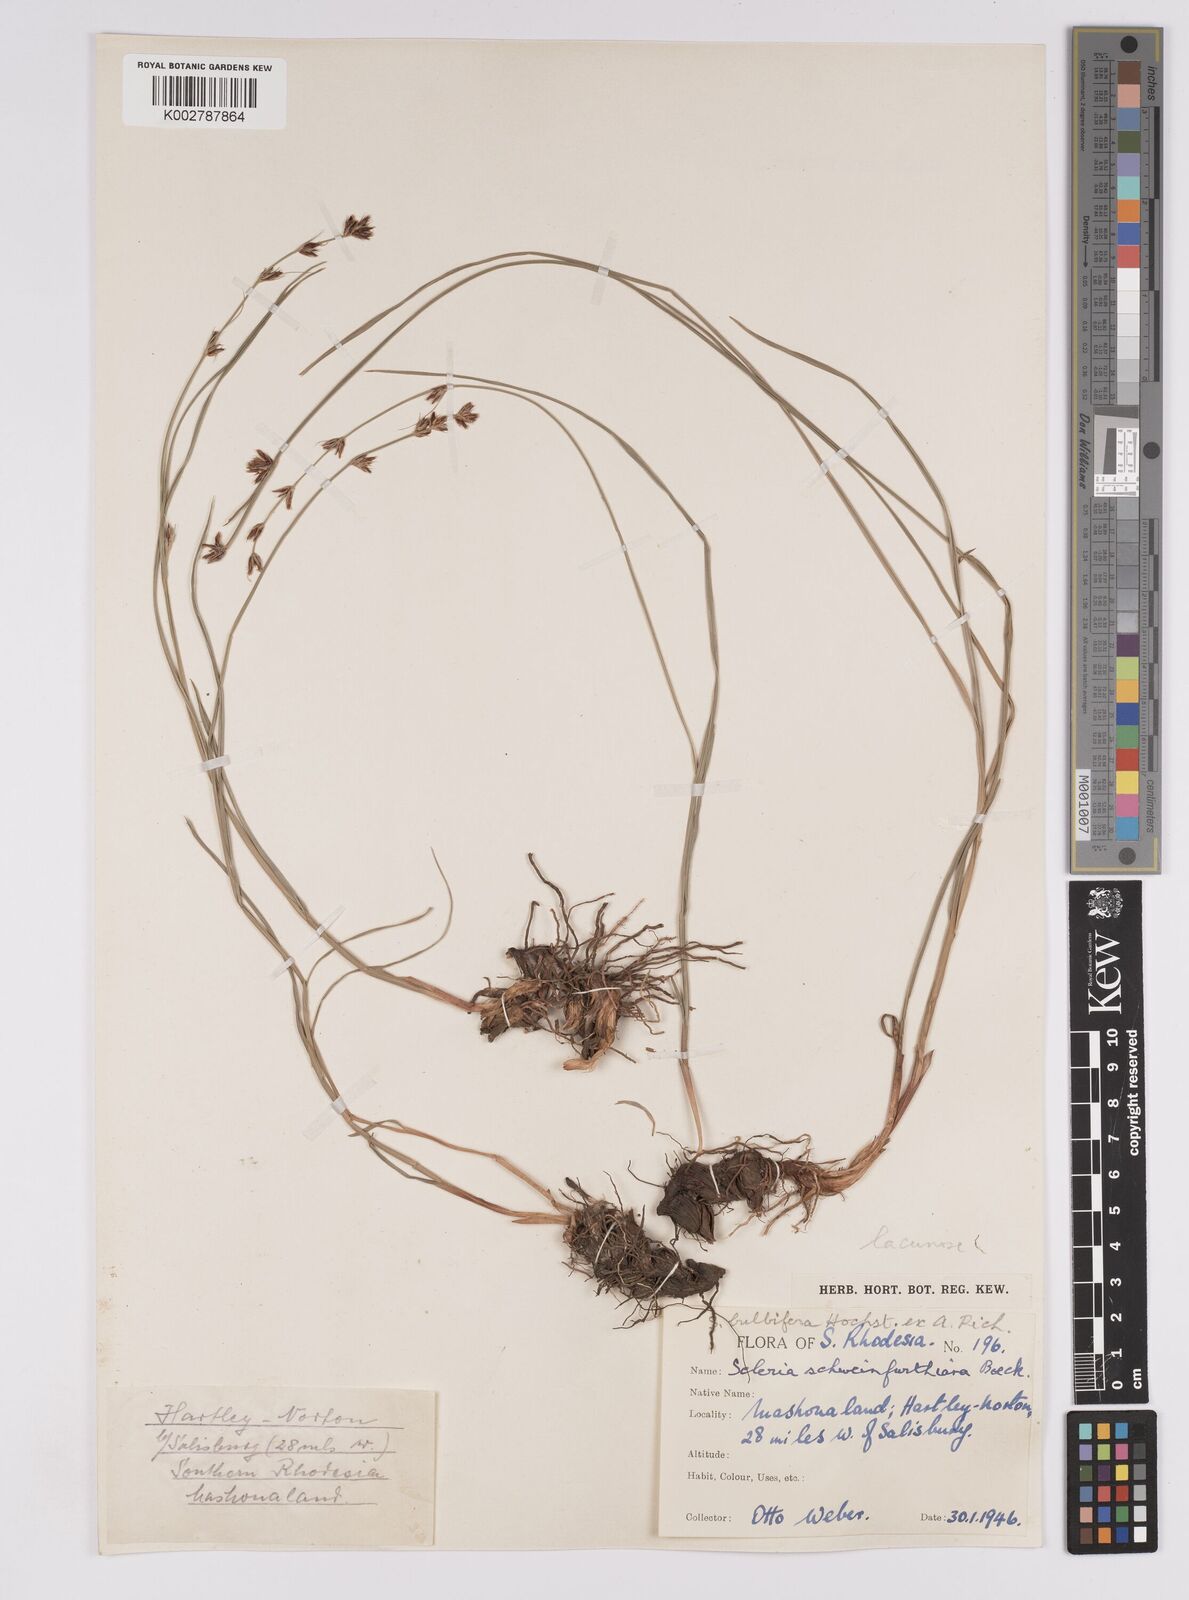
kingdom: Plantae
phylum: Tracheophyta
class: Liliopsida
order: Poales
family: Cyperaceae
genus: Scleria
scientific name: Scleria bulbifera
